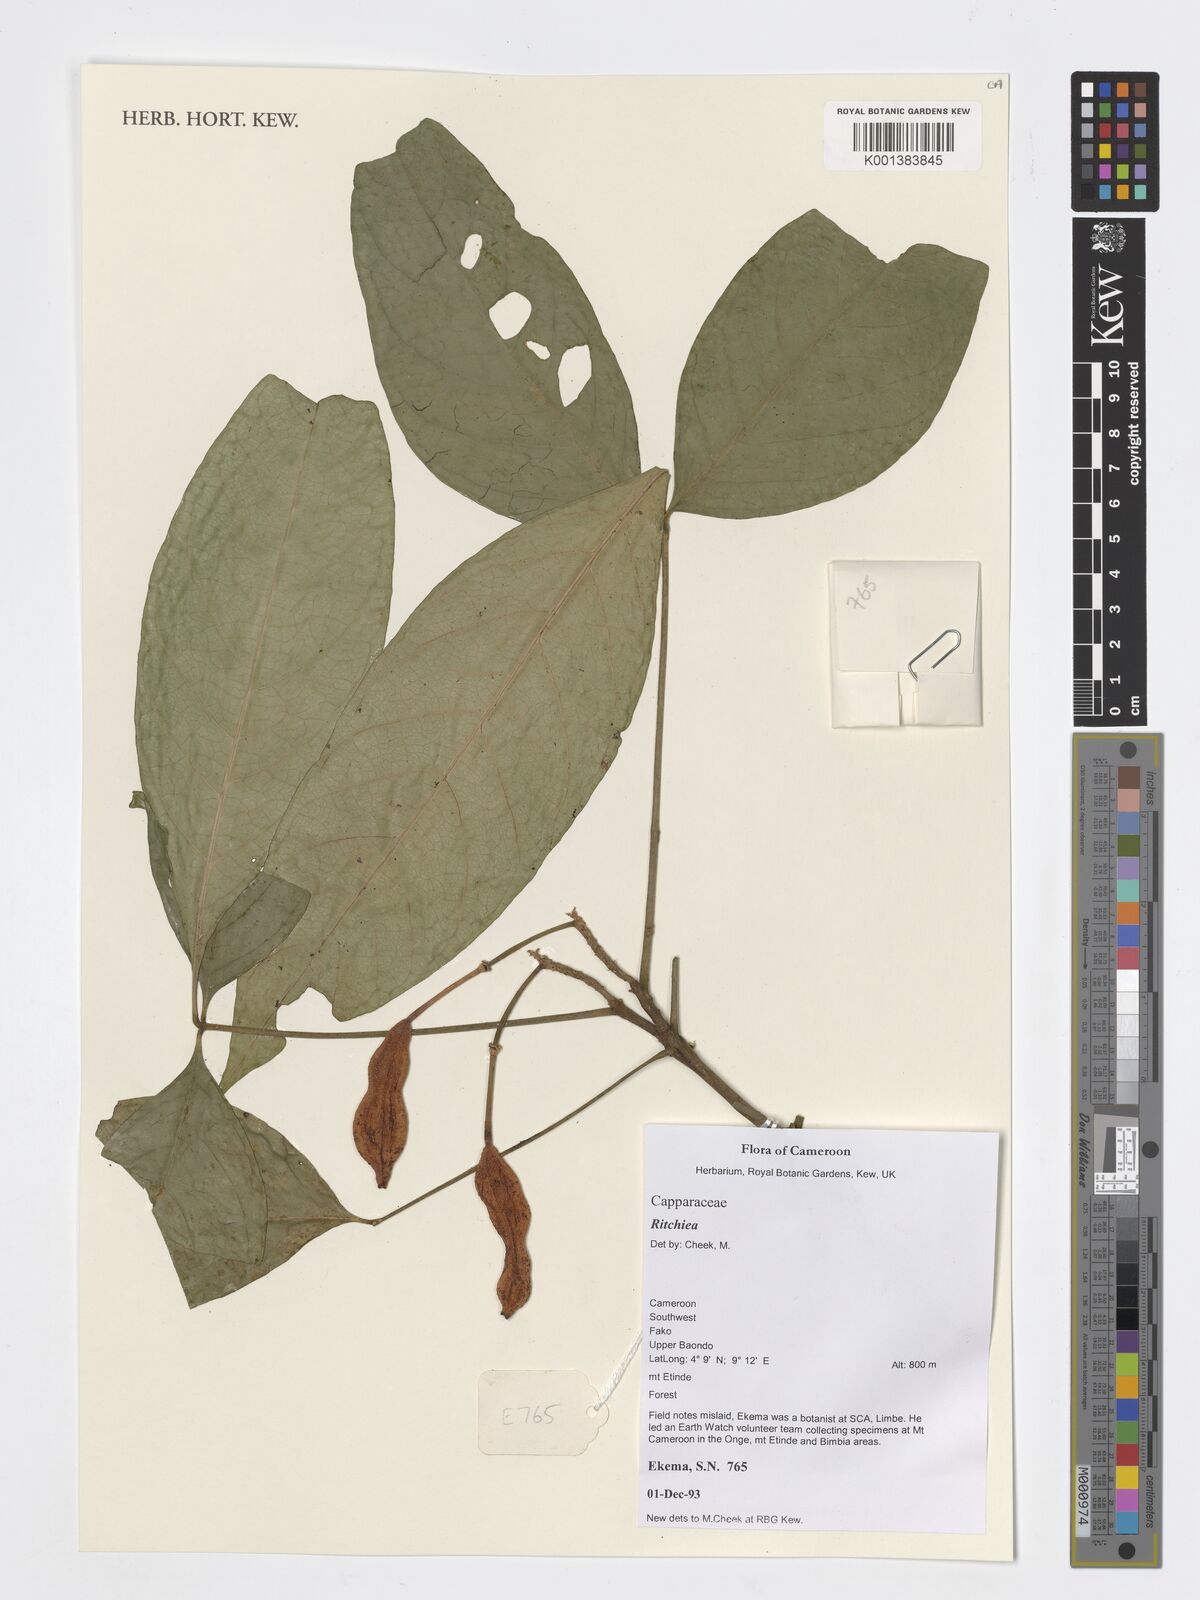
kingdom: Plantae
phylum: Tracheophyta
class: Magnoliopsida
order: Brassicales
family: Capparaceae
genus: Ritchiea
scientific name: Ritchiea
